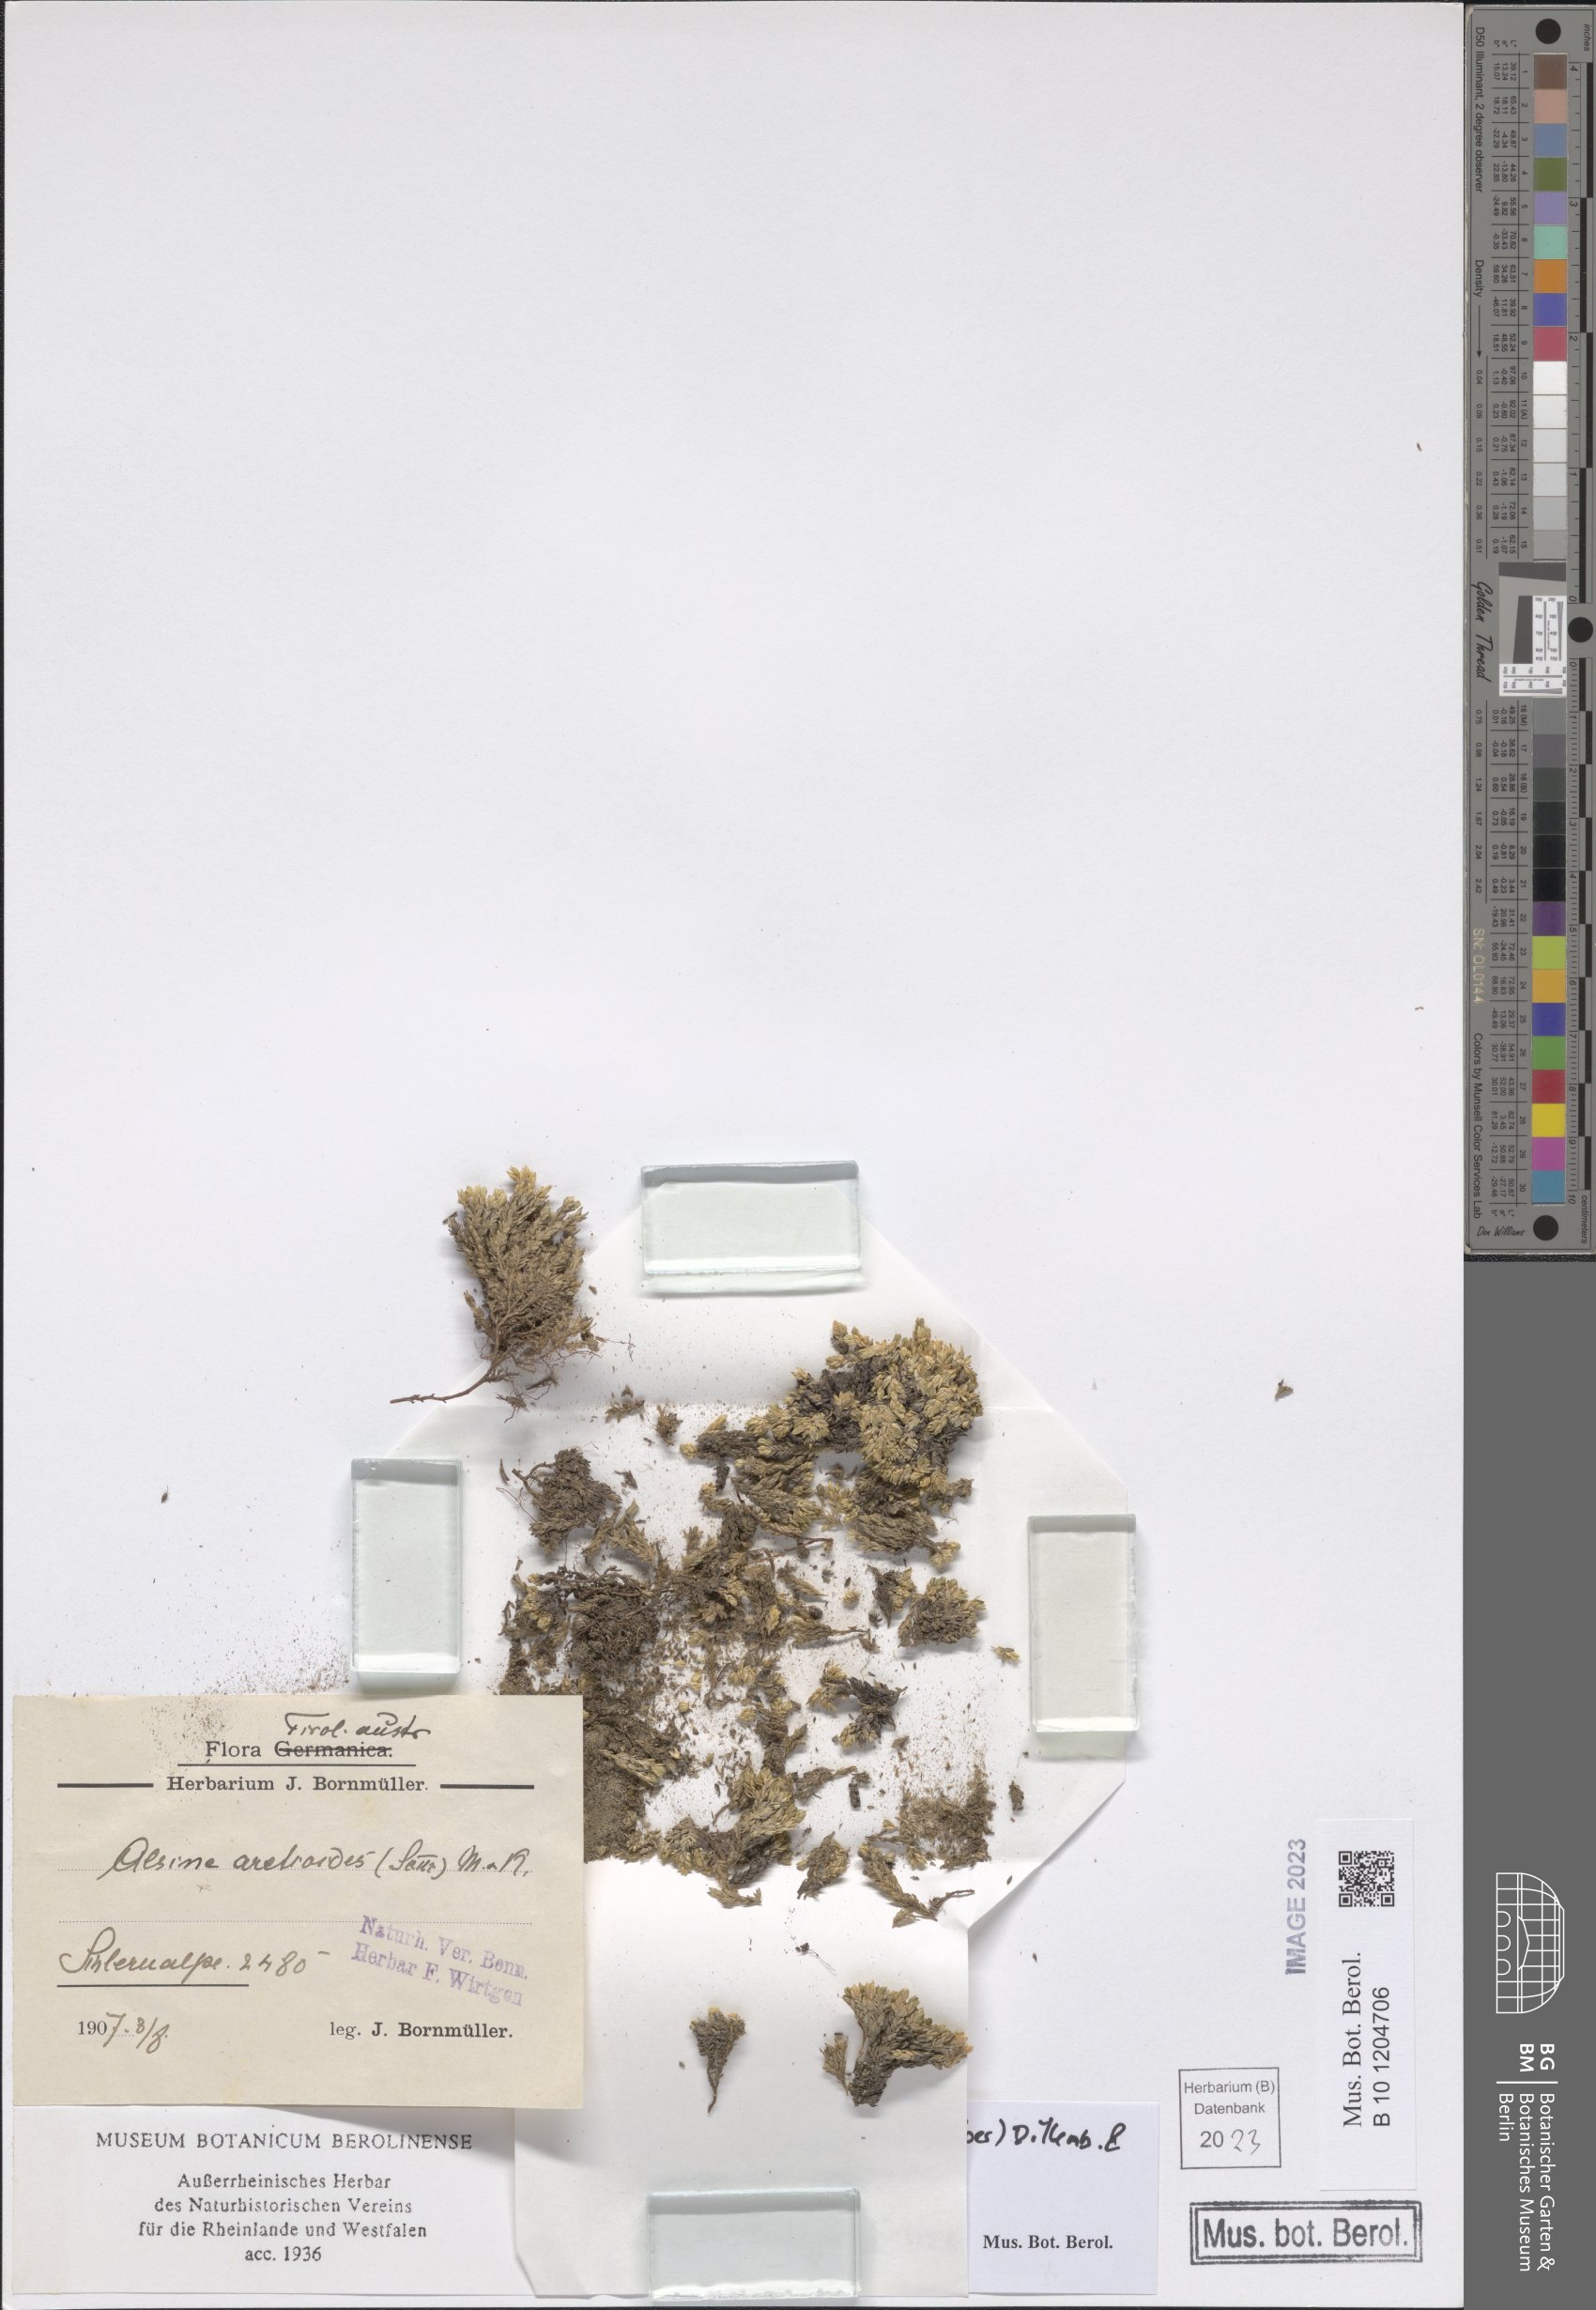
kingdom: Plantae
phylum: Tracheophyta
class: Magnoliopsida
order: Caryophyllales
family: Caryophyllaceae
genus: Facchinia
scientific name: Facchinia cherlerioides
